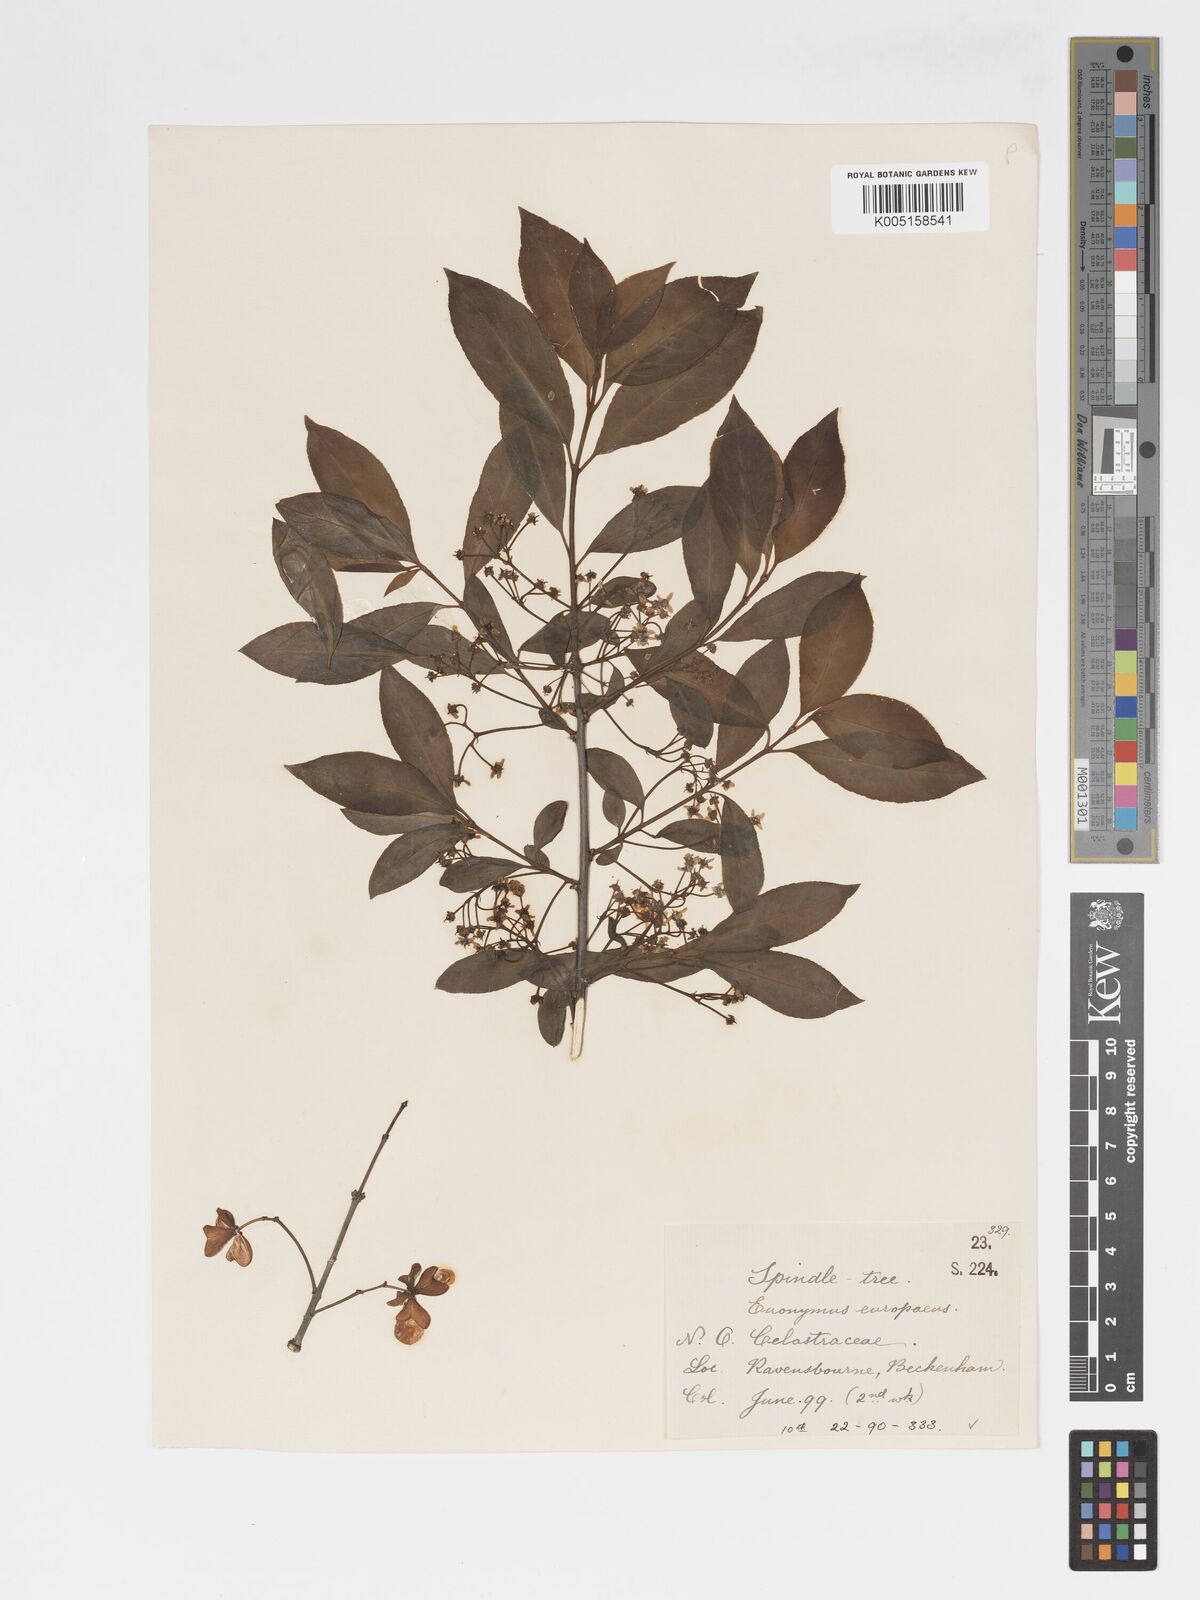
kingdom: Plantae
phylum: Tracheophyta
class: Magnoliopsida
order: Celastrales
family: Celastraceae
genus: Euonymus
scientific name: Euonymus
